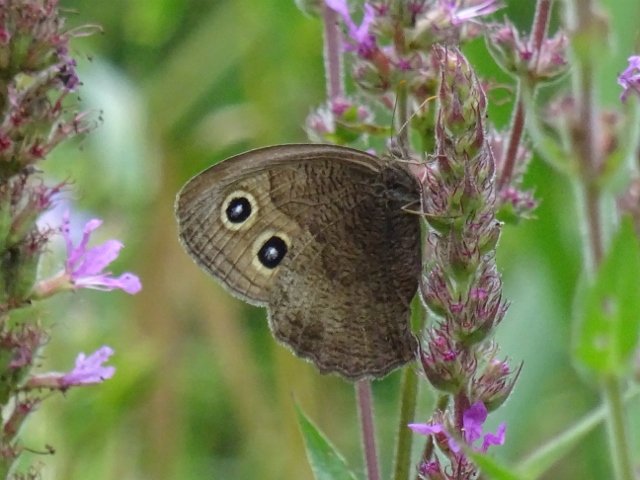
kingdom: Animalia
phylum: Arthropoda
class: Insecta
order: Lepidoptera
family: Nymphalidae
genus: Cercyonis
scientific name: Cercyonis pegala
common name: Common Wood-Nymph
